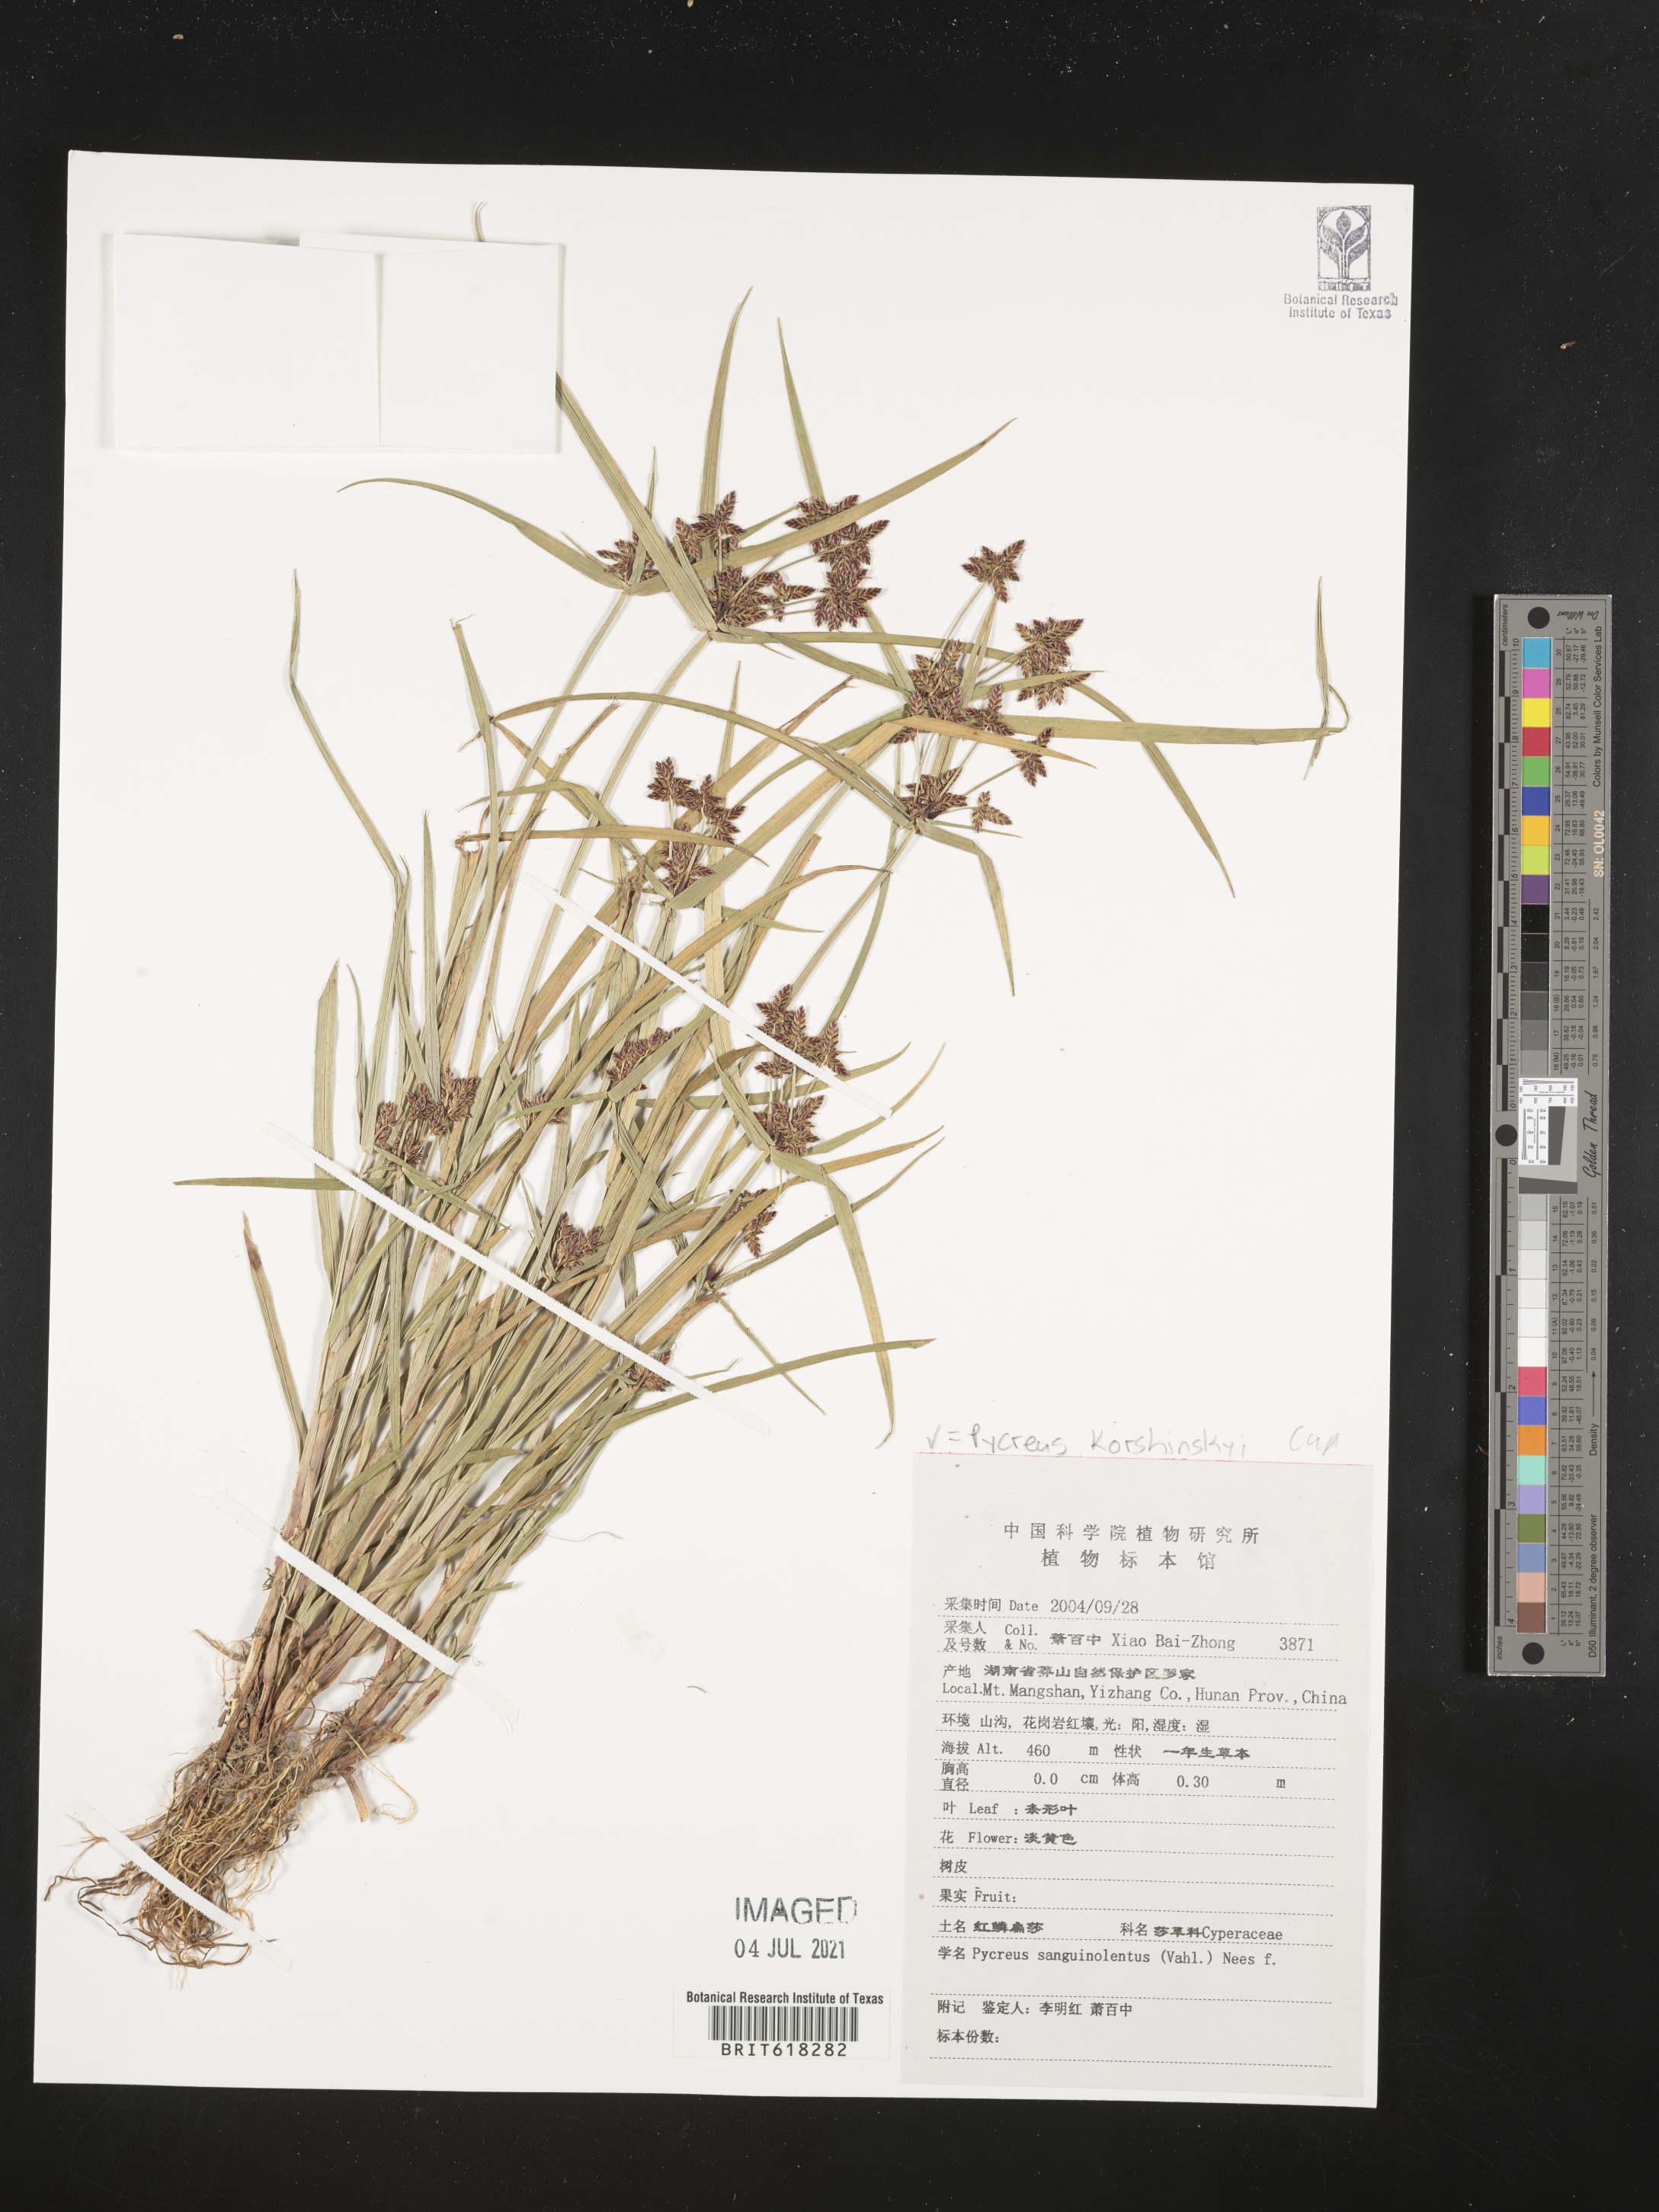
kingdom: Plantae
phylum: Tracheophyta
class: Liliopsida
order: Poales
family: Cyperaceae
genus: Cyperus
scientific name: Cyperus sanguinolentus
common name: Purpleglume flatsedge
